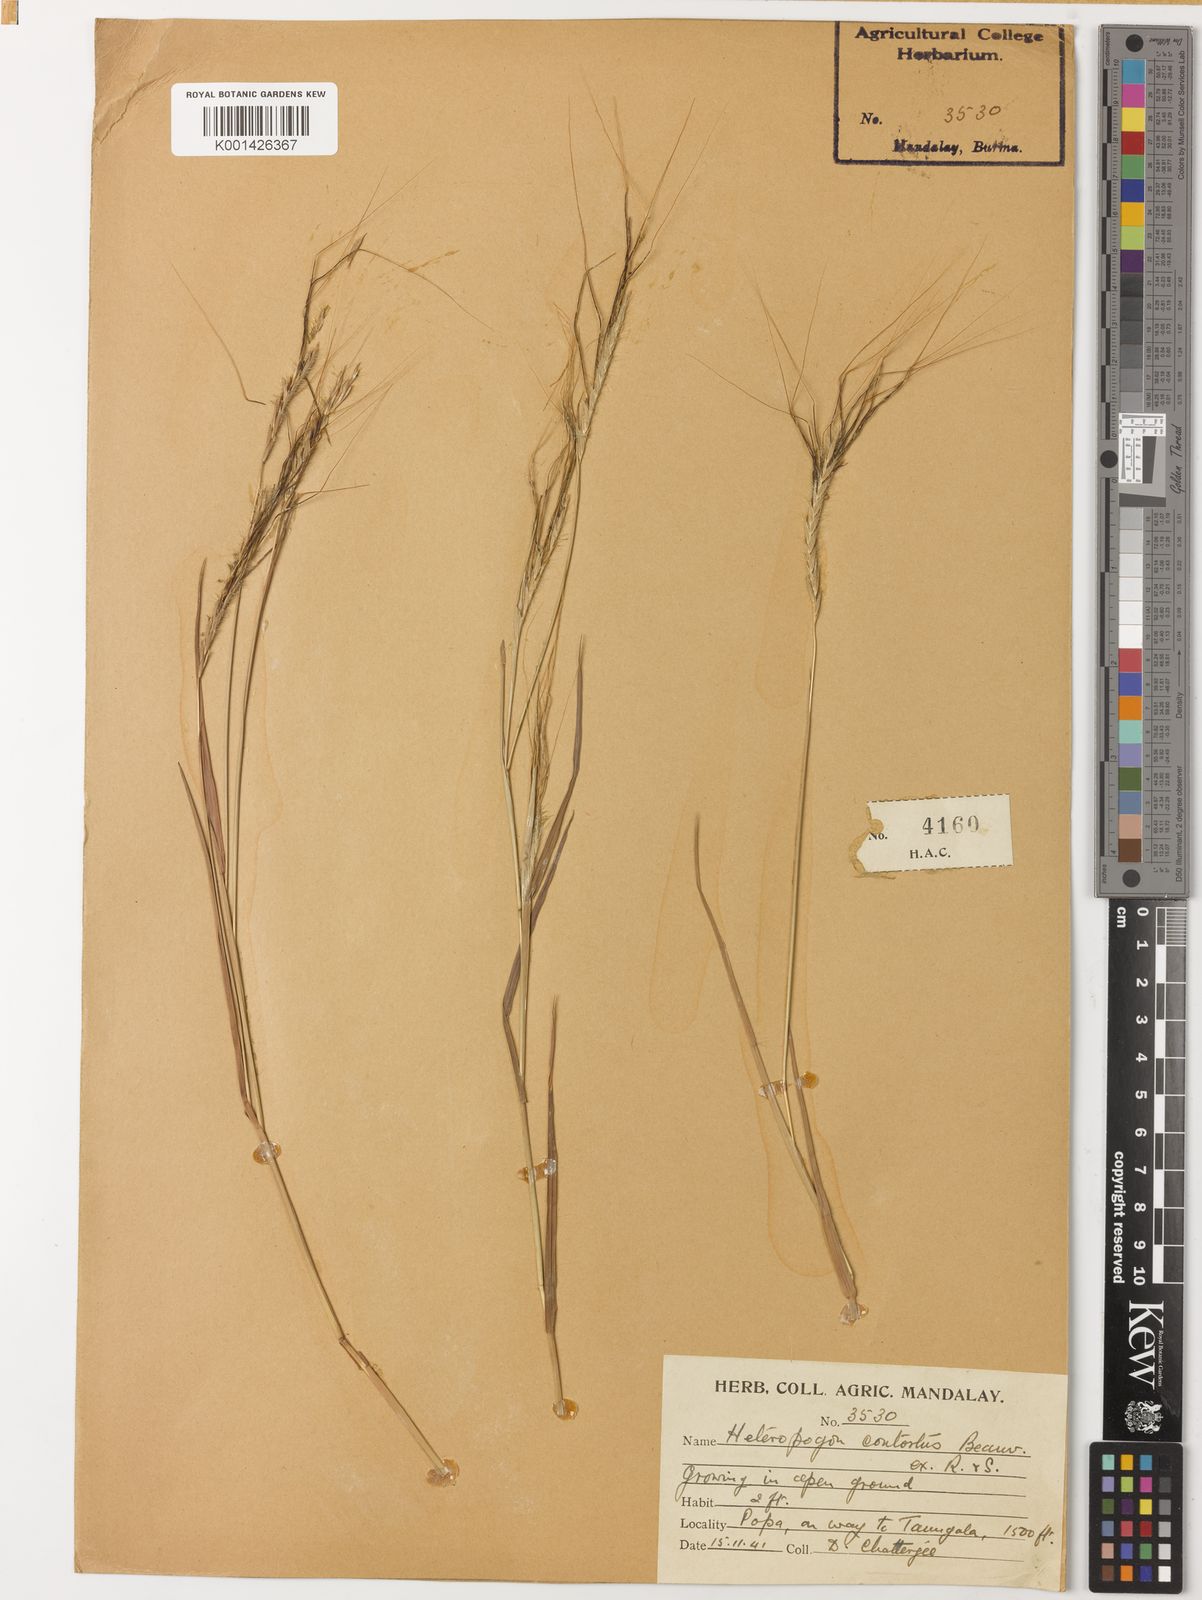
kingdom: Plantae
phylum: Tracheophyta
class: Liliopsida
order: Poales
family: Poaceae
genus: Heteropogon
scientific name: Heteropogon contortus
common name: Tanglehead
